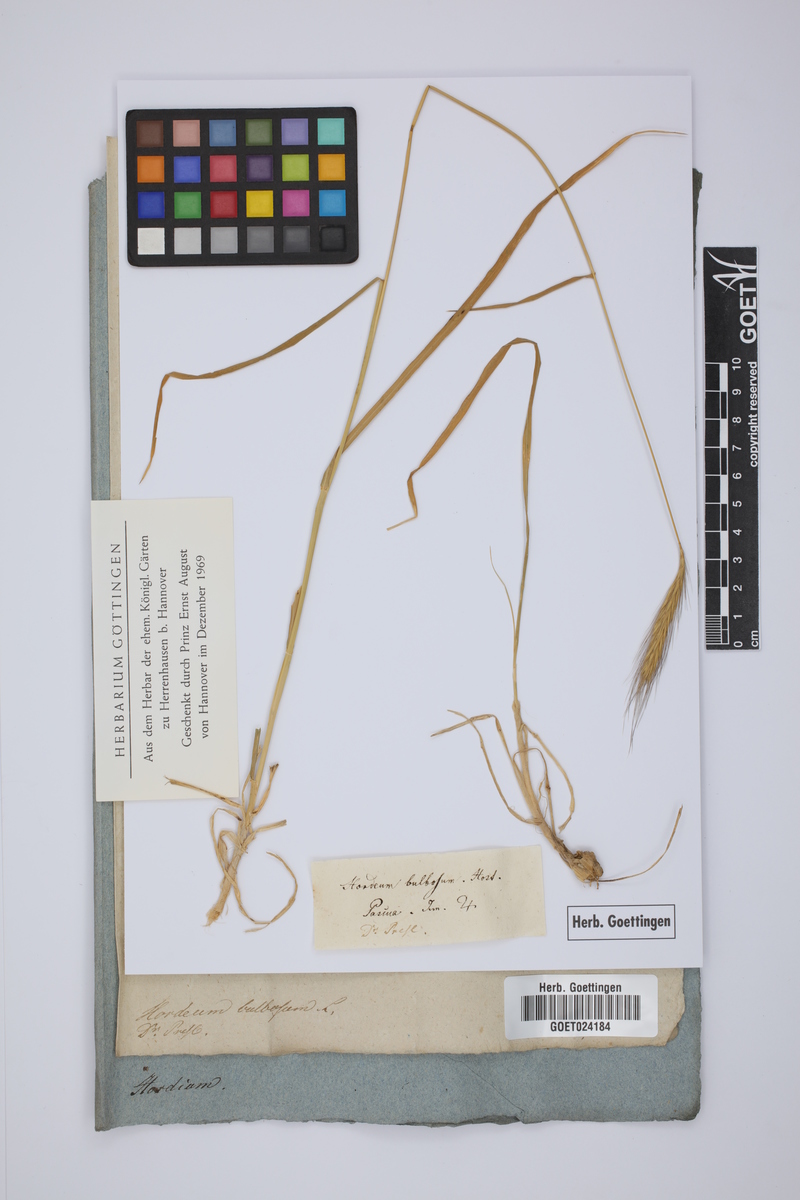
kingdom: Plantae
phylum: Tracheophyta
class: Liliopsida
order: Poales
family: Poaceae
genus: Hordeum
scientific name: Hordeum bulbosum
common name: Bulbous barley
